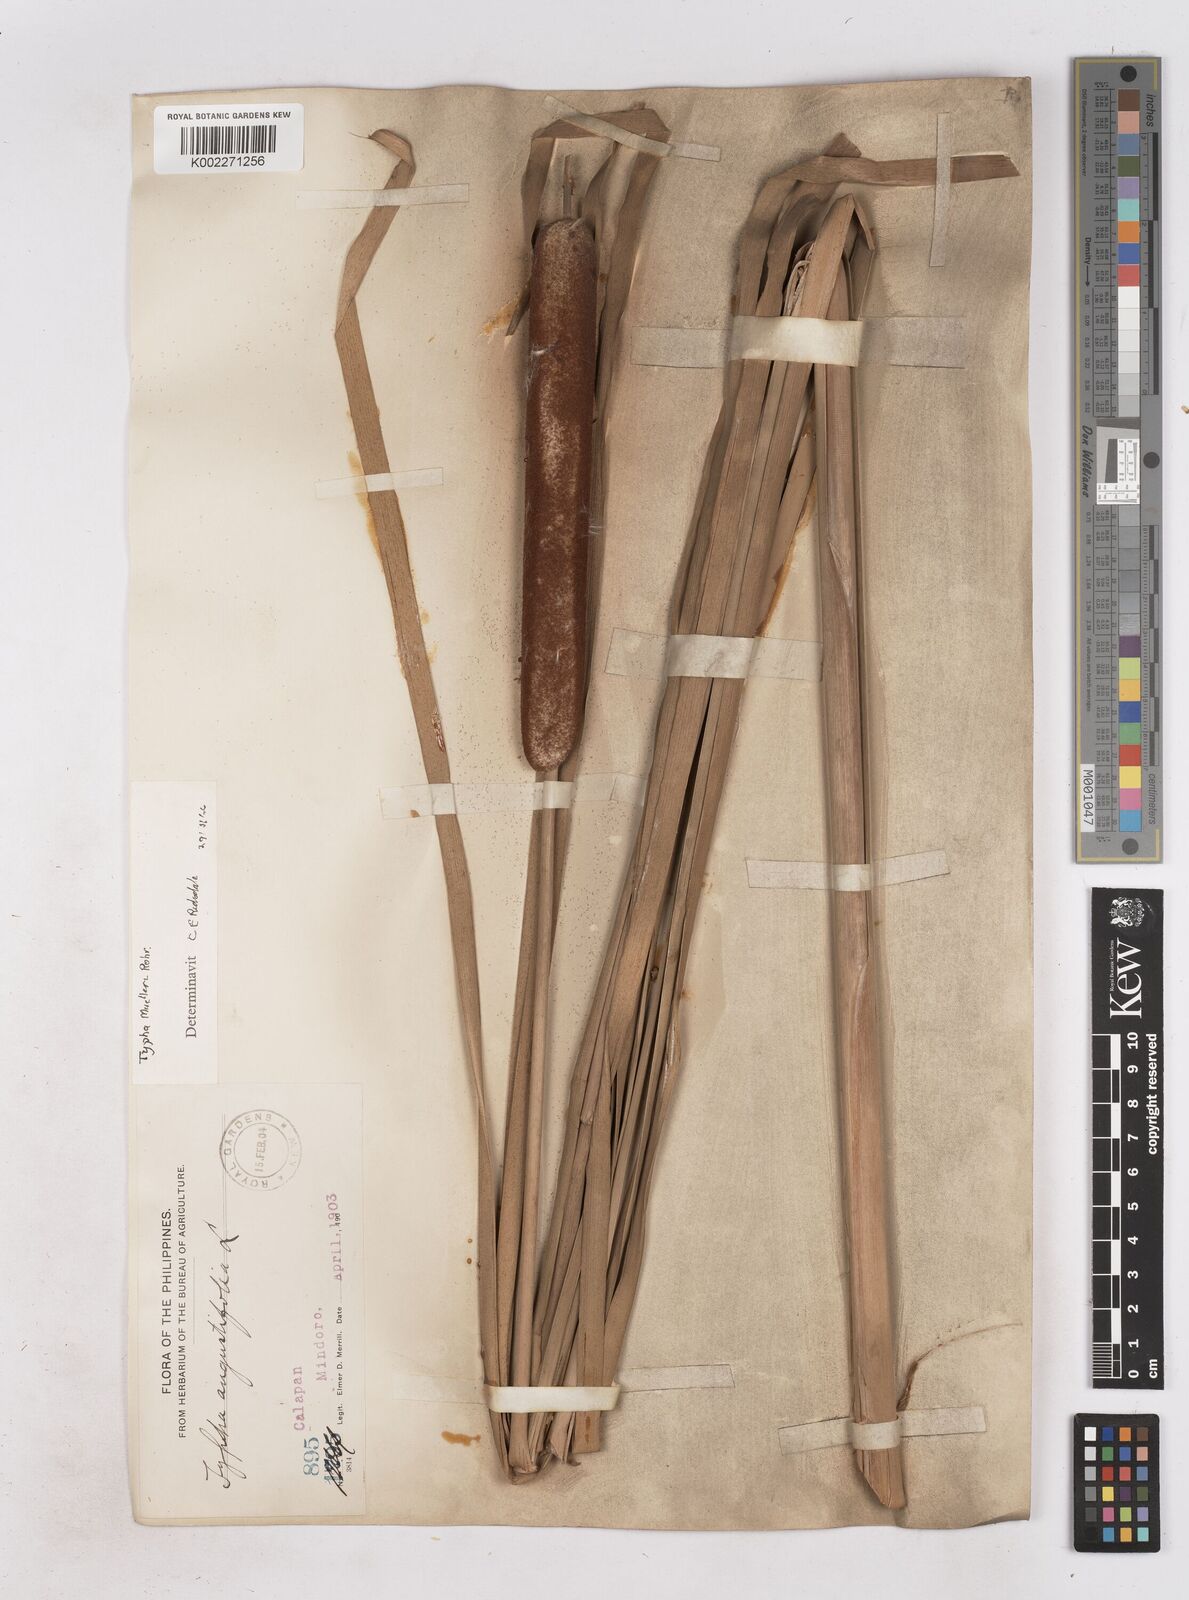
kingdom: Plantae
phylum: Tracheophyta
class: Liliopsida
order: Poales
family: Typhaceae
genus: Typha
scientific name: Typha orientalis
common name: Bullrush
